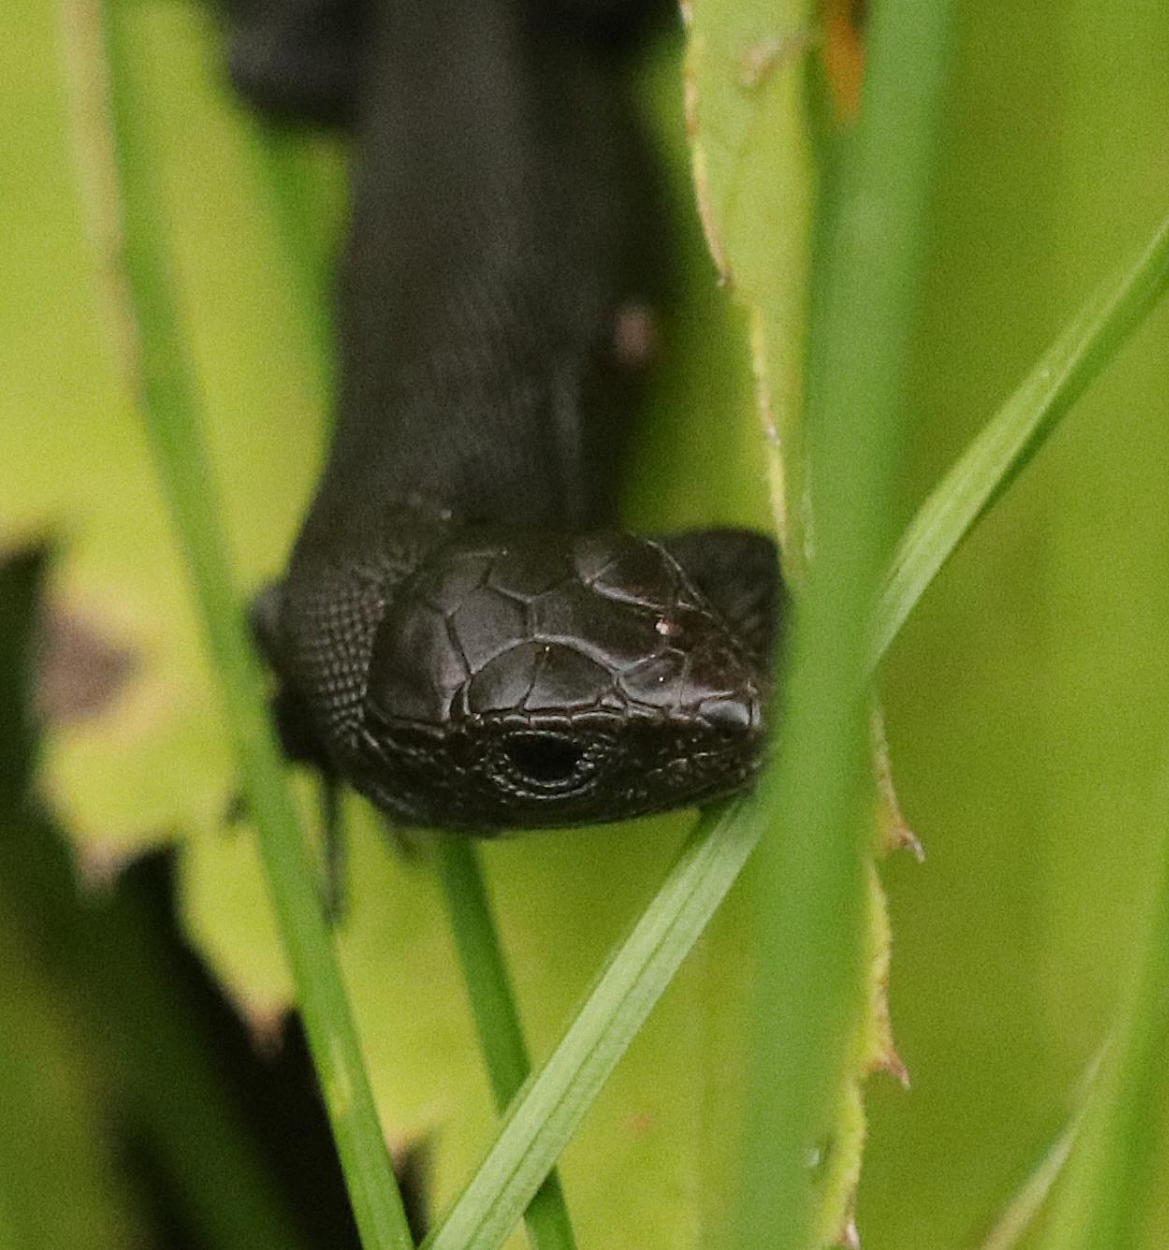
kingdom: Animalia
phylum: Chordata
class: Squamata
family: Lacertidae
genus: Zootoca
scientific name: Zootoca vivipara
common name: Skovfirben
